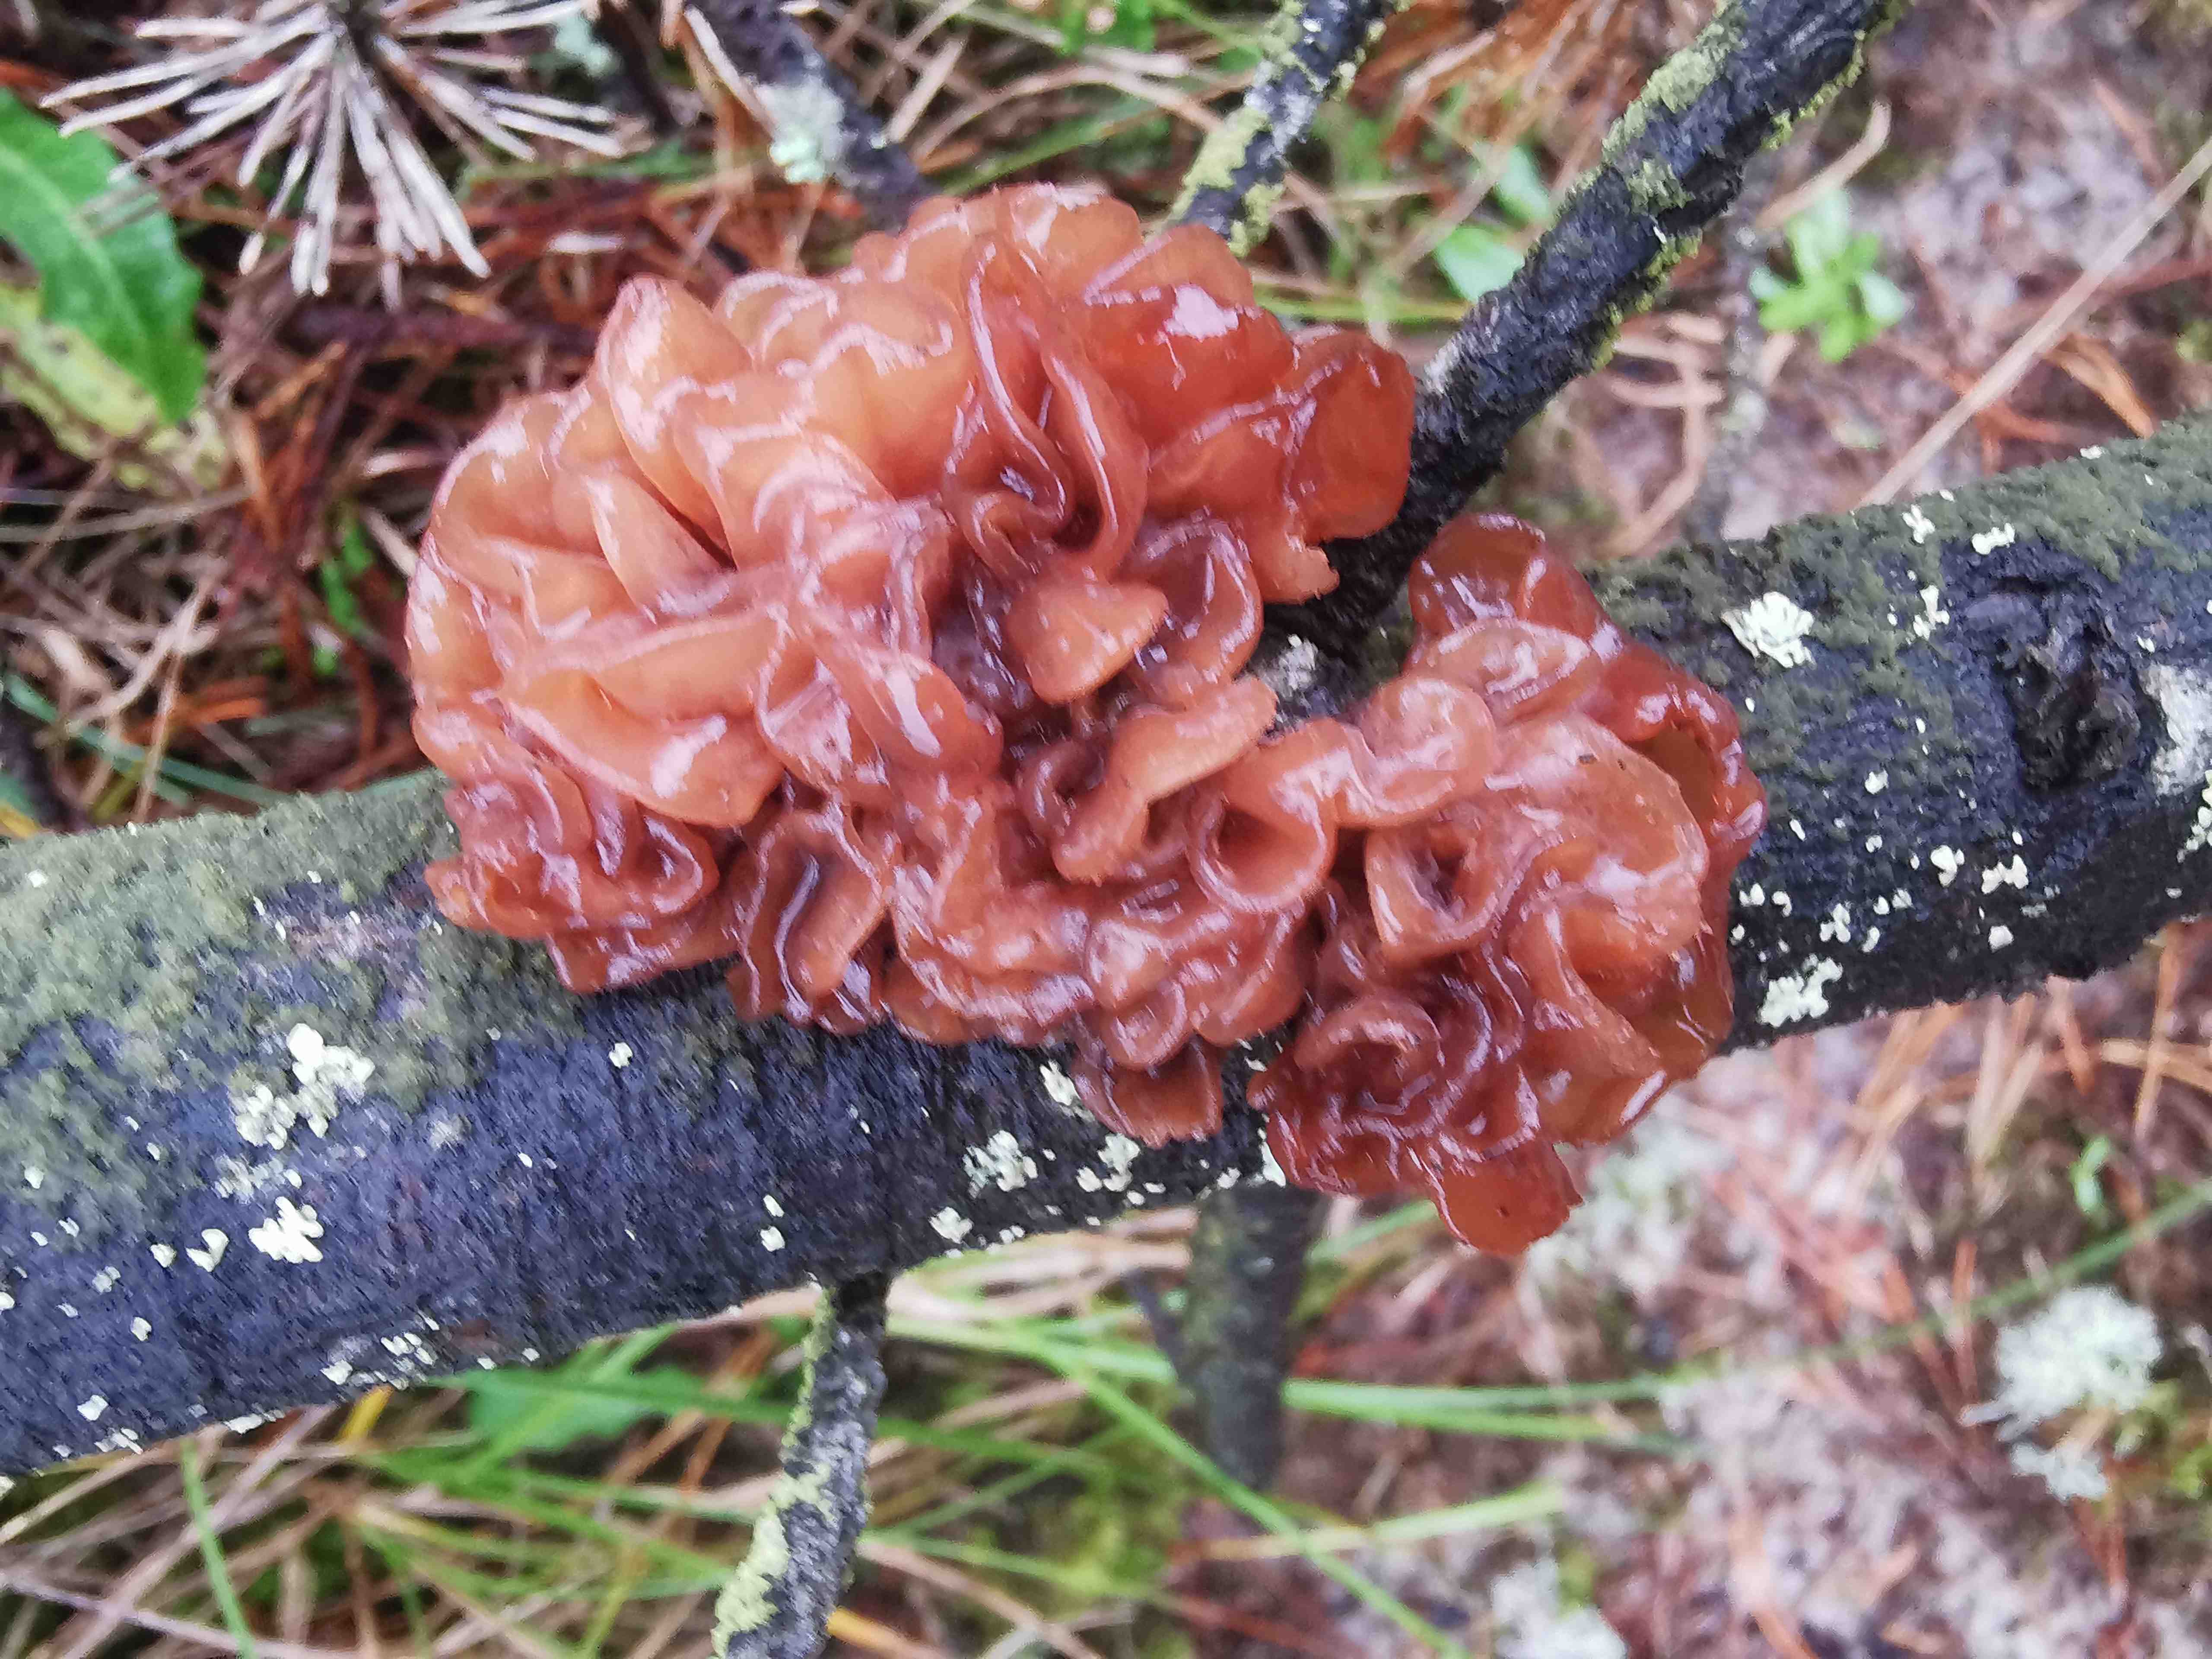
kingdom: Fungi
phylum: Basidiomycota
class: Tremellomycetes
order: Tremellales
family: Tremellaceae
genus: Phaeotremella
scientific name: Phaeotremella foliacea
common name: brun bævresvamp
